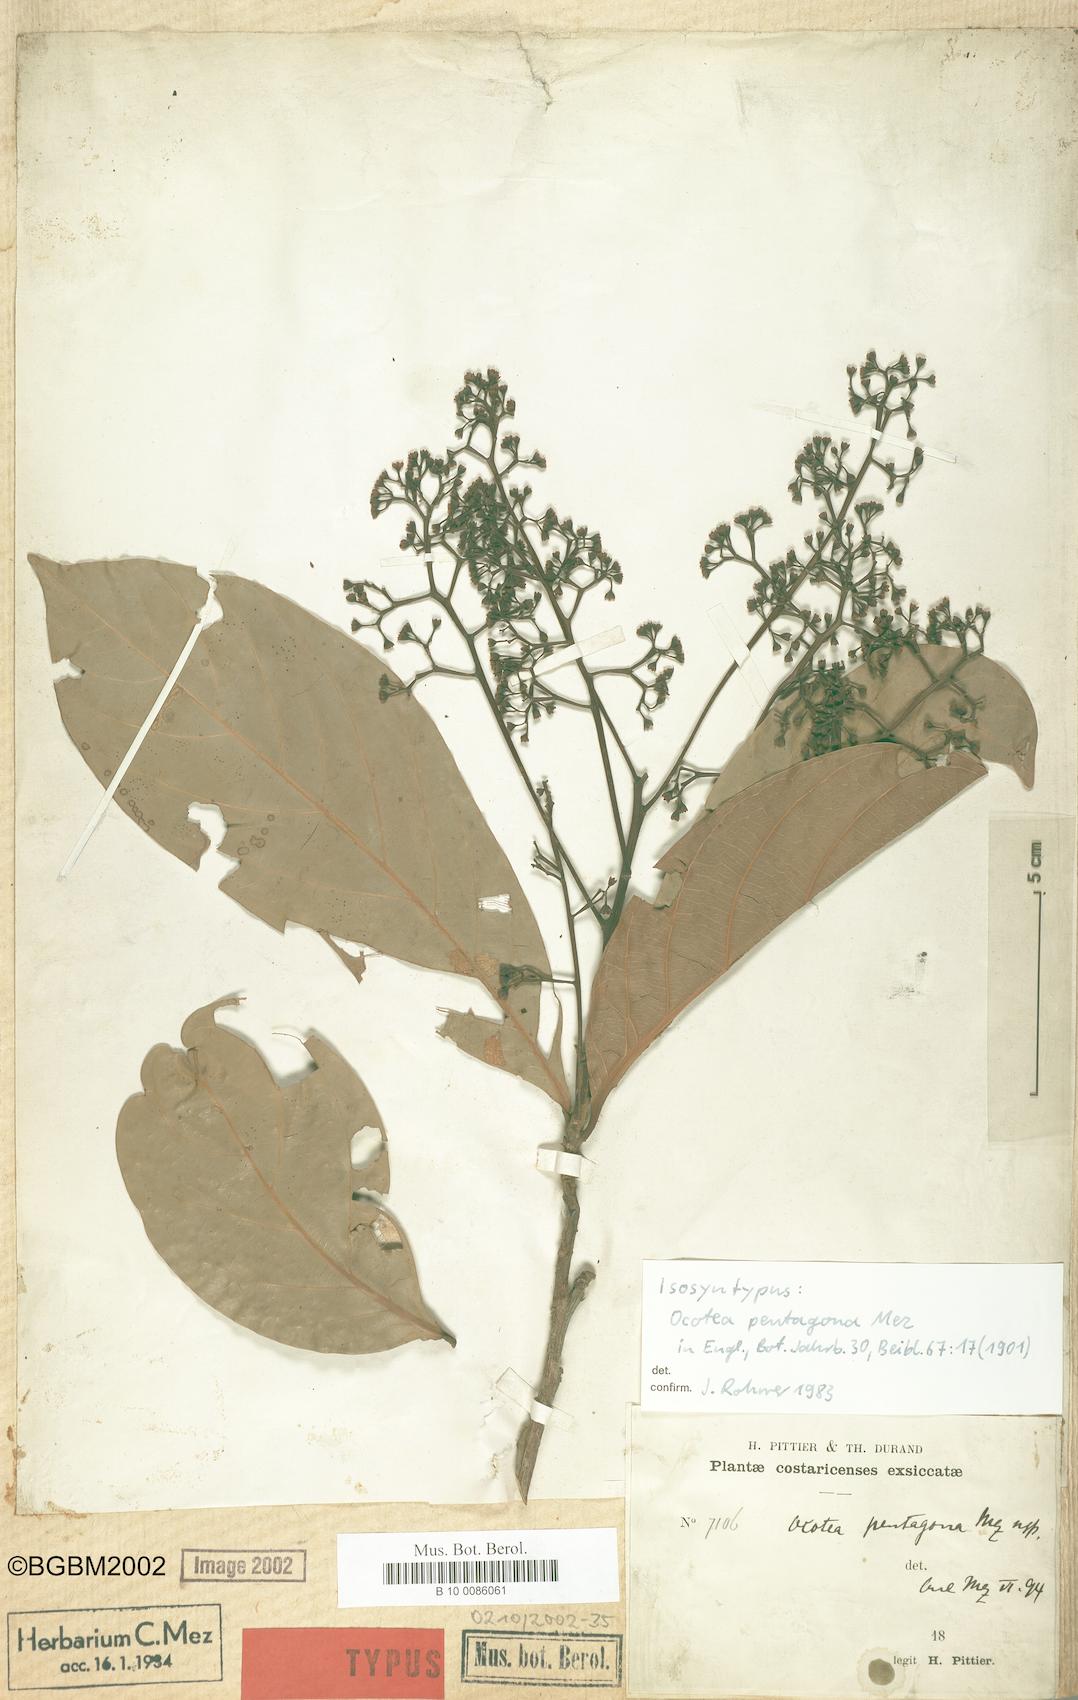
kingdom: Plantae
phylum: Tracheophyta
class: Magnoliopsida
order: Laurales
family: Lauraceae
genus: Ocotea
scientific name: Ocotea pentagona
